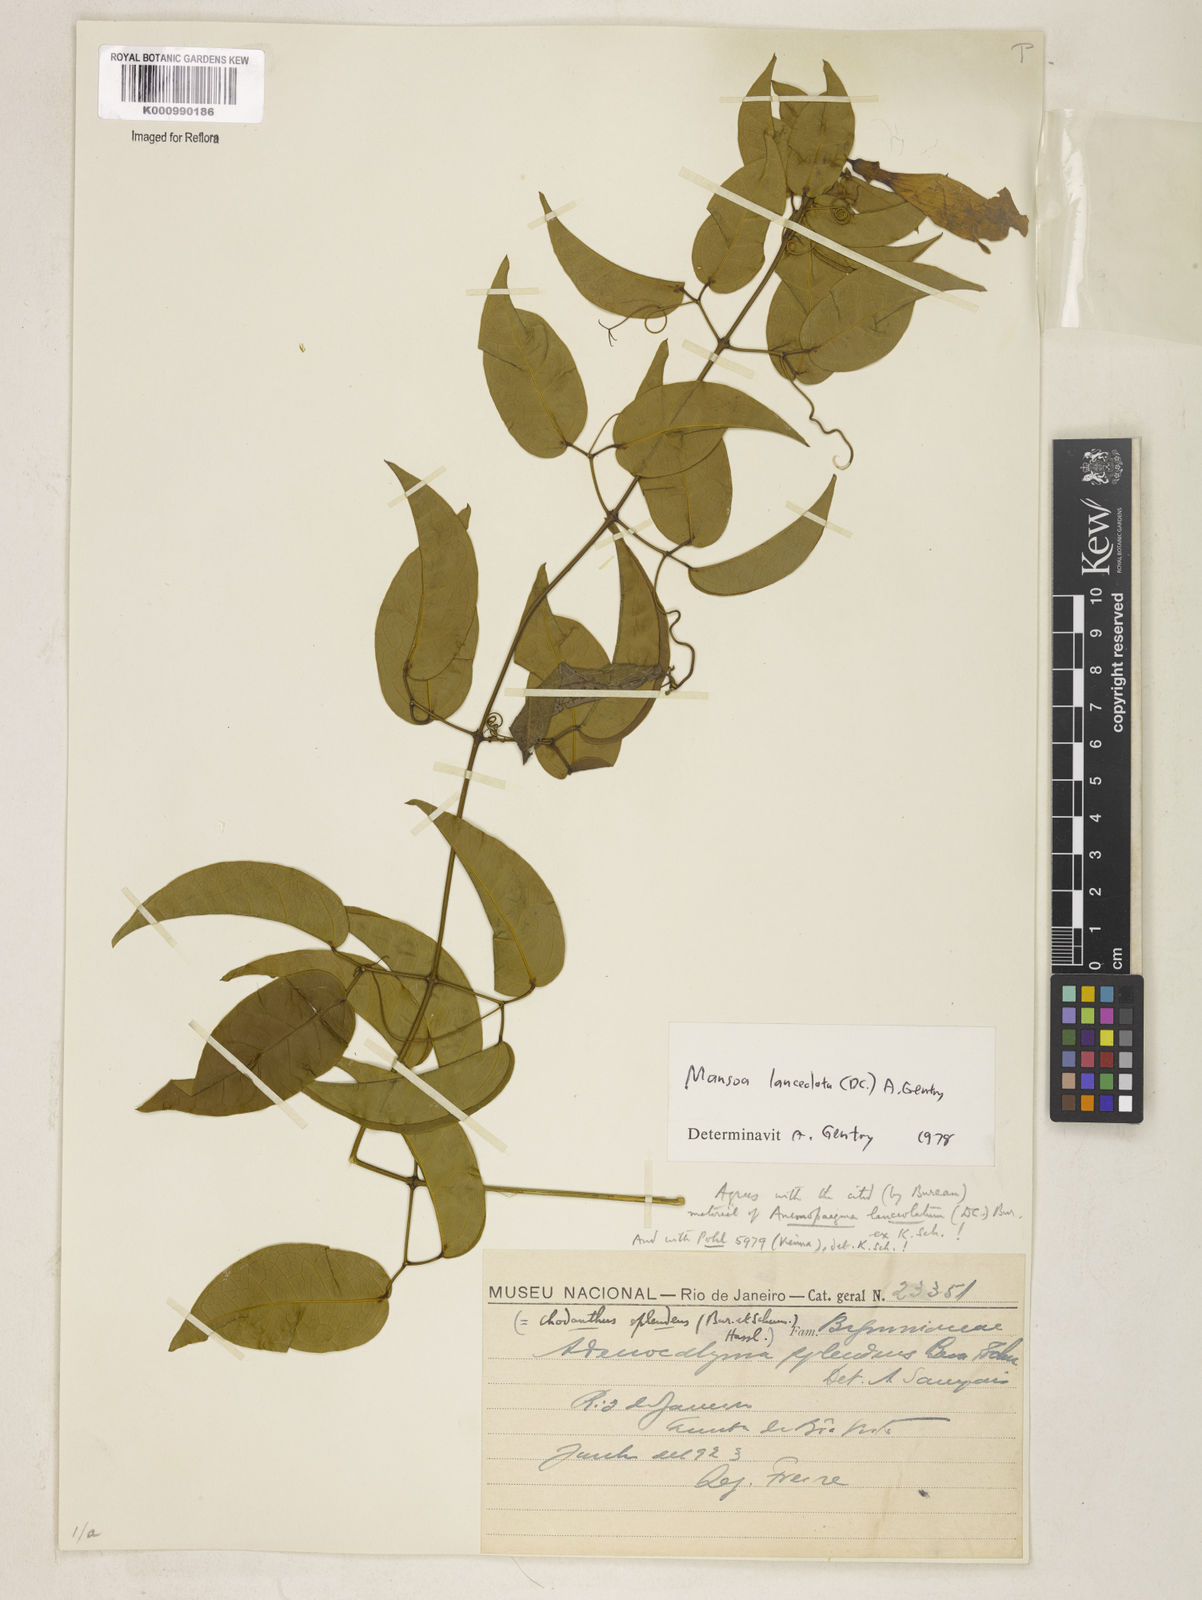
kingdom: Plantae
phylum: Tracheophyta
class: Magnoliopsida
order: Lamiales
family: Bignoniaceae
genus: Mansoa
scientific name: Mansoa difficilis
